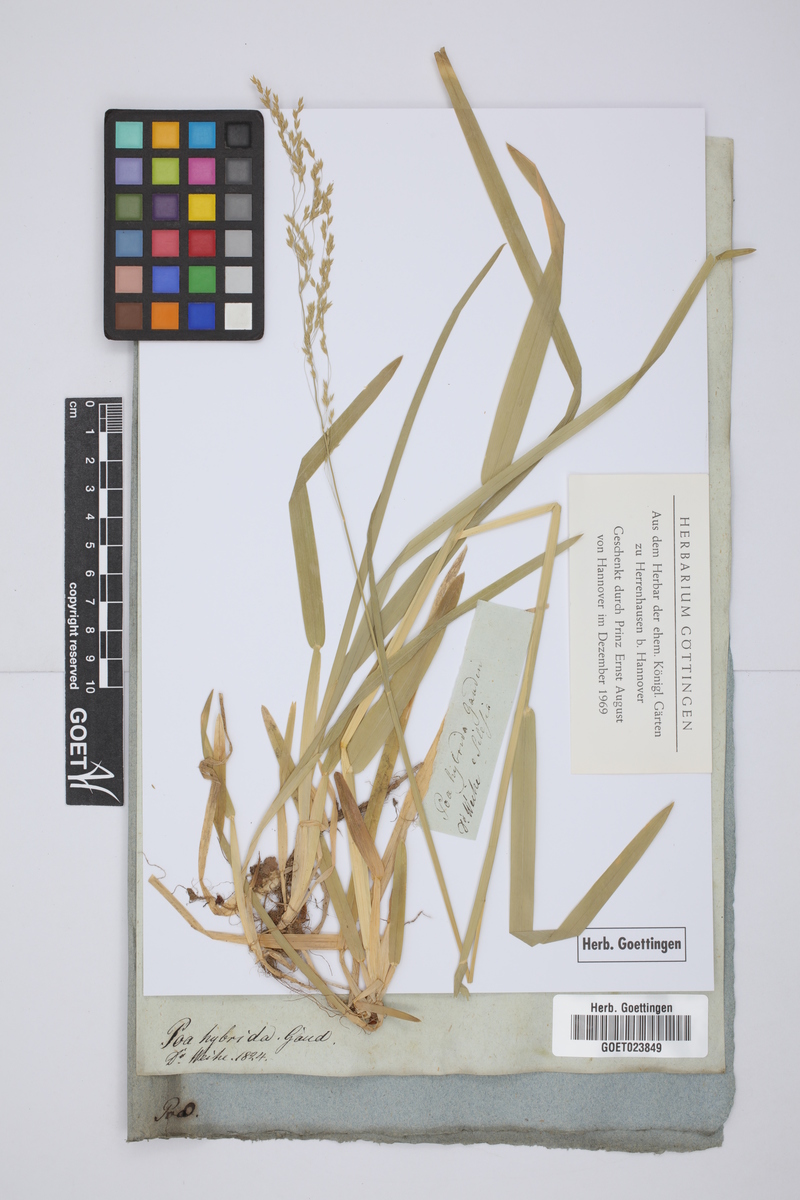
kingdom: Plantae
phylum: Tracheophyta
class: Liliopsida
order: Poales
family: Poaceae
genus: Poa
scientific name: Poa hybrida
